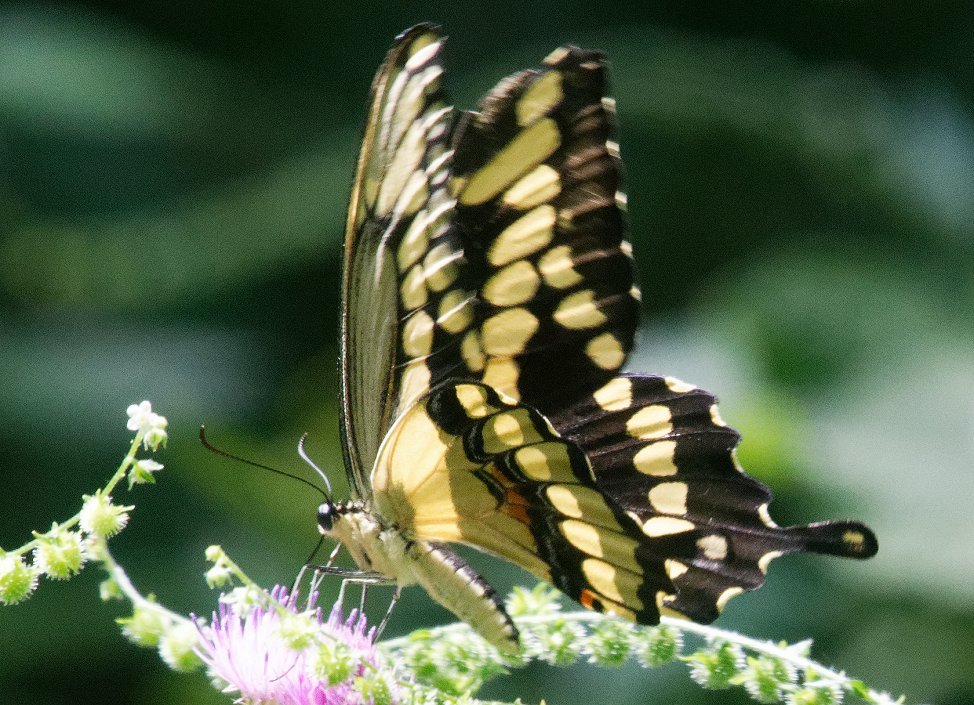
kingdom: Animalia
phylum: Arthropoda
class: Insecta
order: Lepidoptera
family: Papilionidae
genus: Papilio
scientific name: Papilio cresphontes
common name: Eastern Giant Swallowtail
